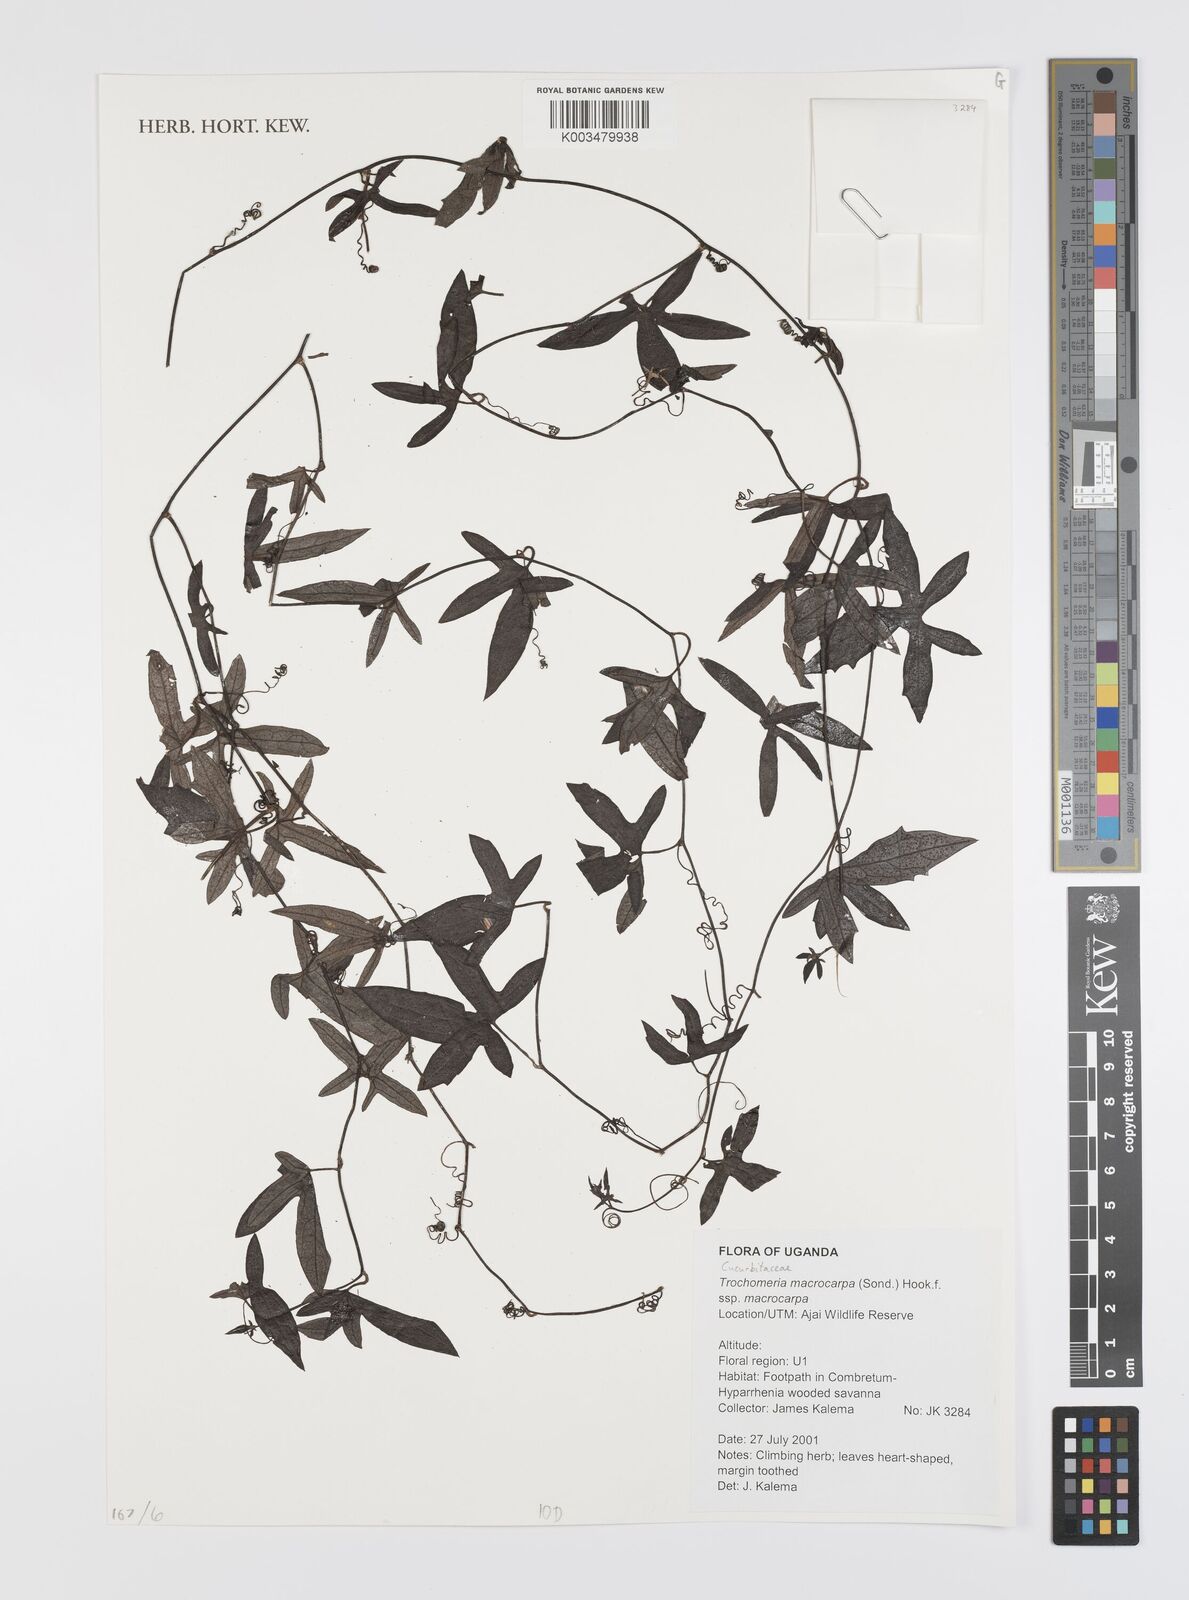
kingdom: Plantae
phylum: Tracheophyta
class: Magnoliopsida
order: Cucurbitales
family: Cucurbitaceae
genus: Trochomeria
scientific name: Trochomeria macrocarpa
